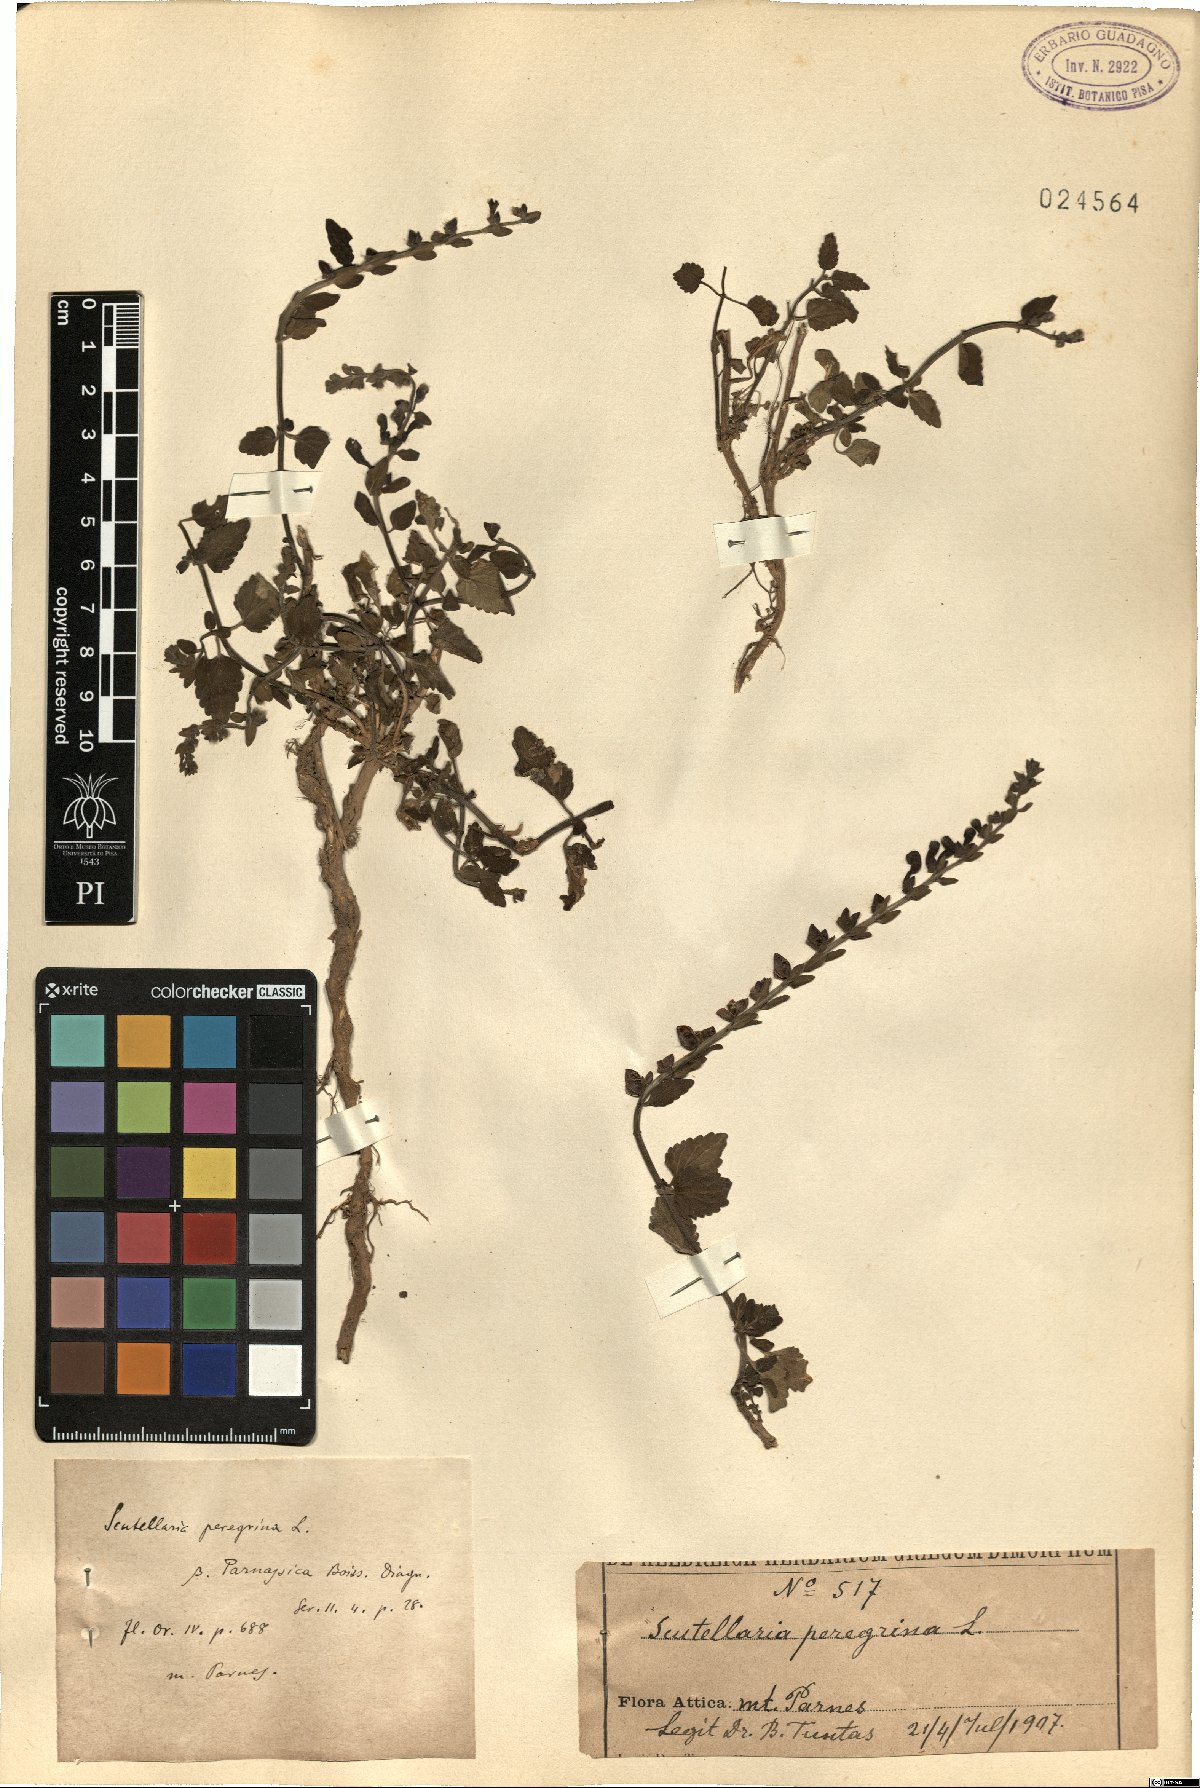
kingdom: Plantae
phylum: Tracheophyta
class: Magnoliopsida
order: Lamiales
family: Lamiaceae
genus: Scutellaria
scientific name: Scutellaria columnae
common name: Large skullcap
